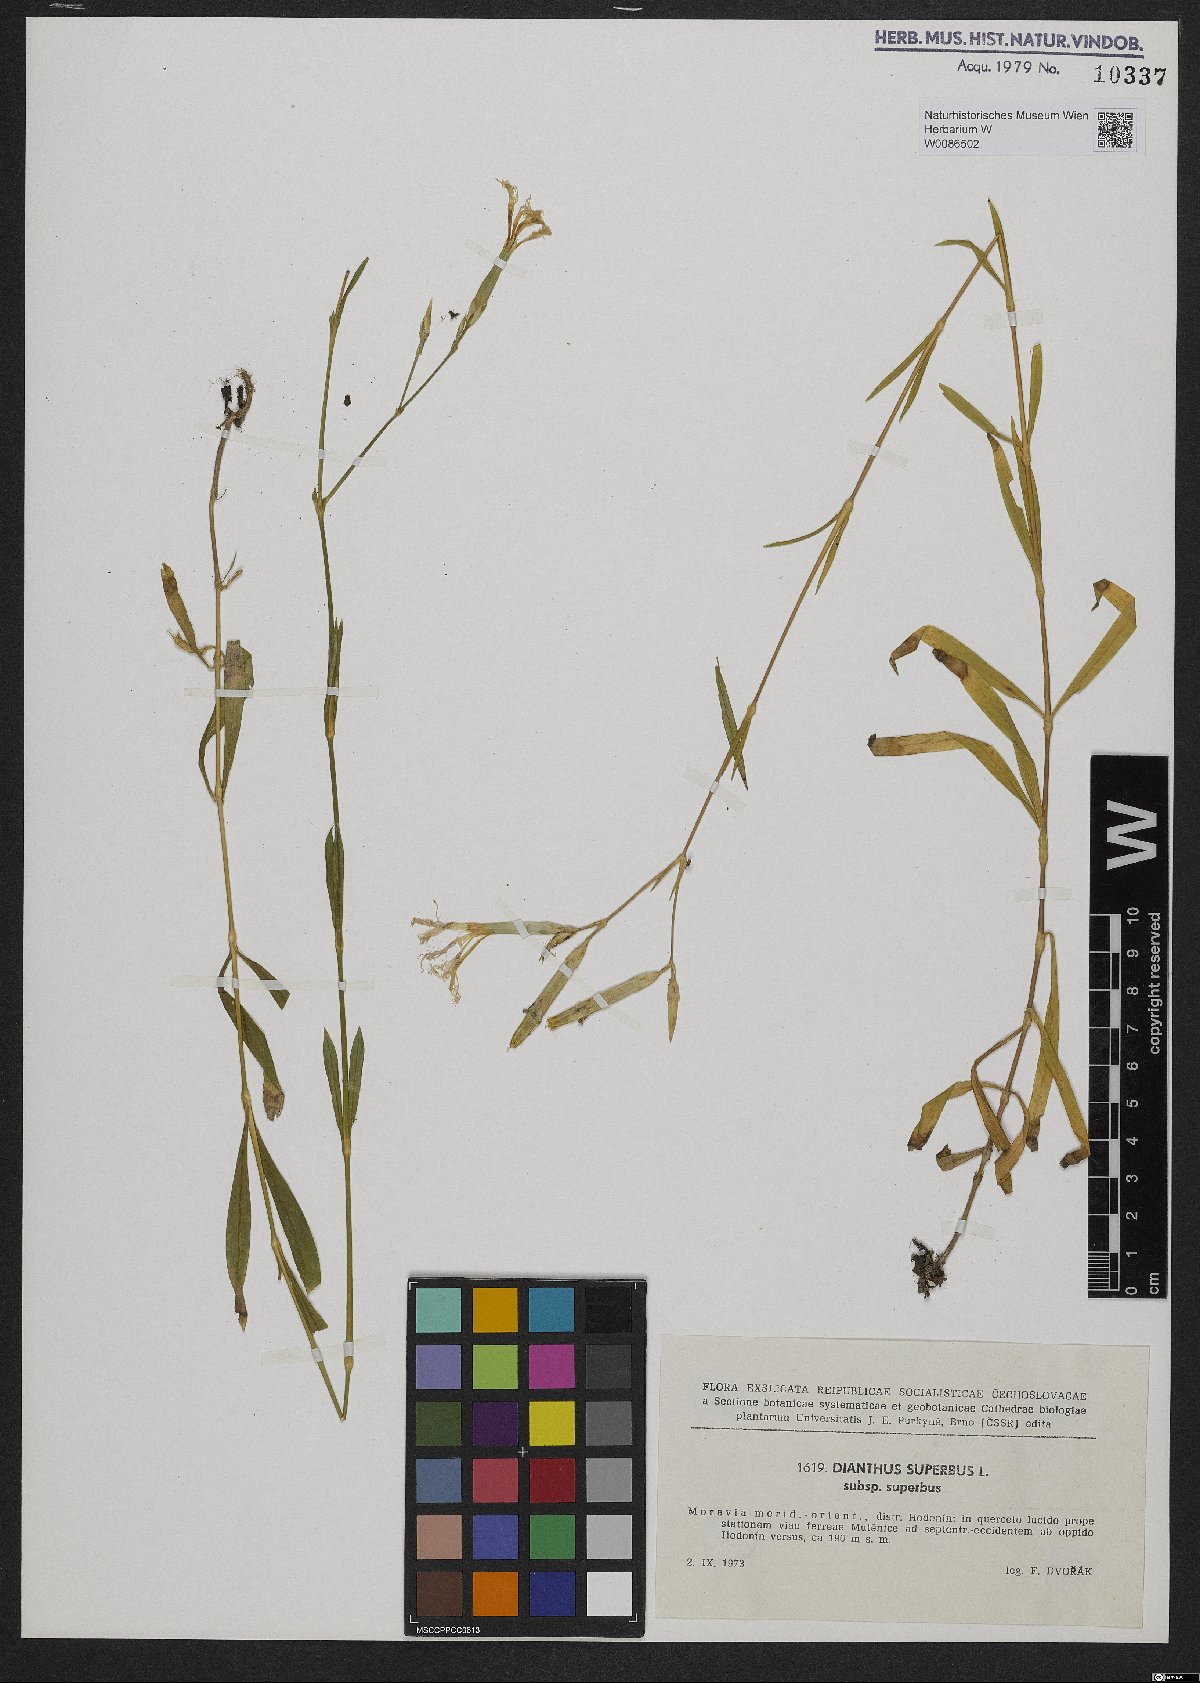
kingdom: Plantae
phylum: Tracheophyta
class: Magnoliopsida
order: Caryophyllales
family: Caryophyllaceae
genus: Dianthus
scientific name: Dianthus superbus
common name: Fringed pink
